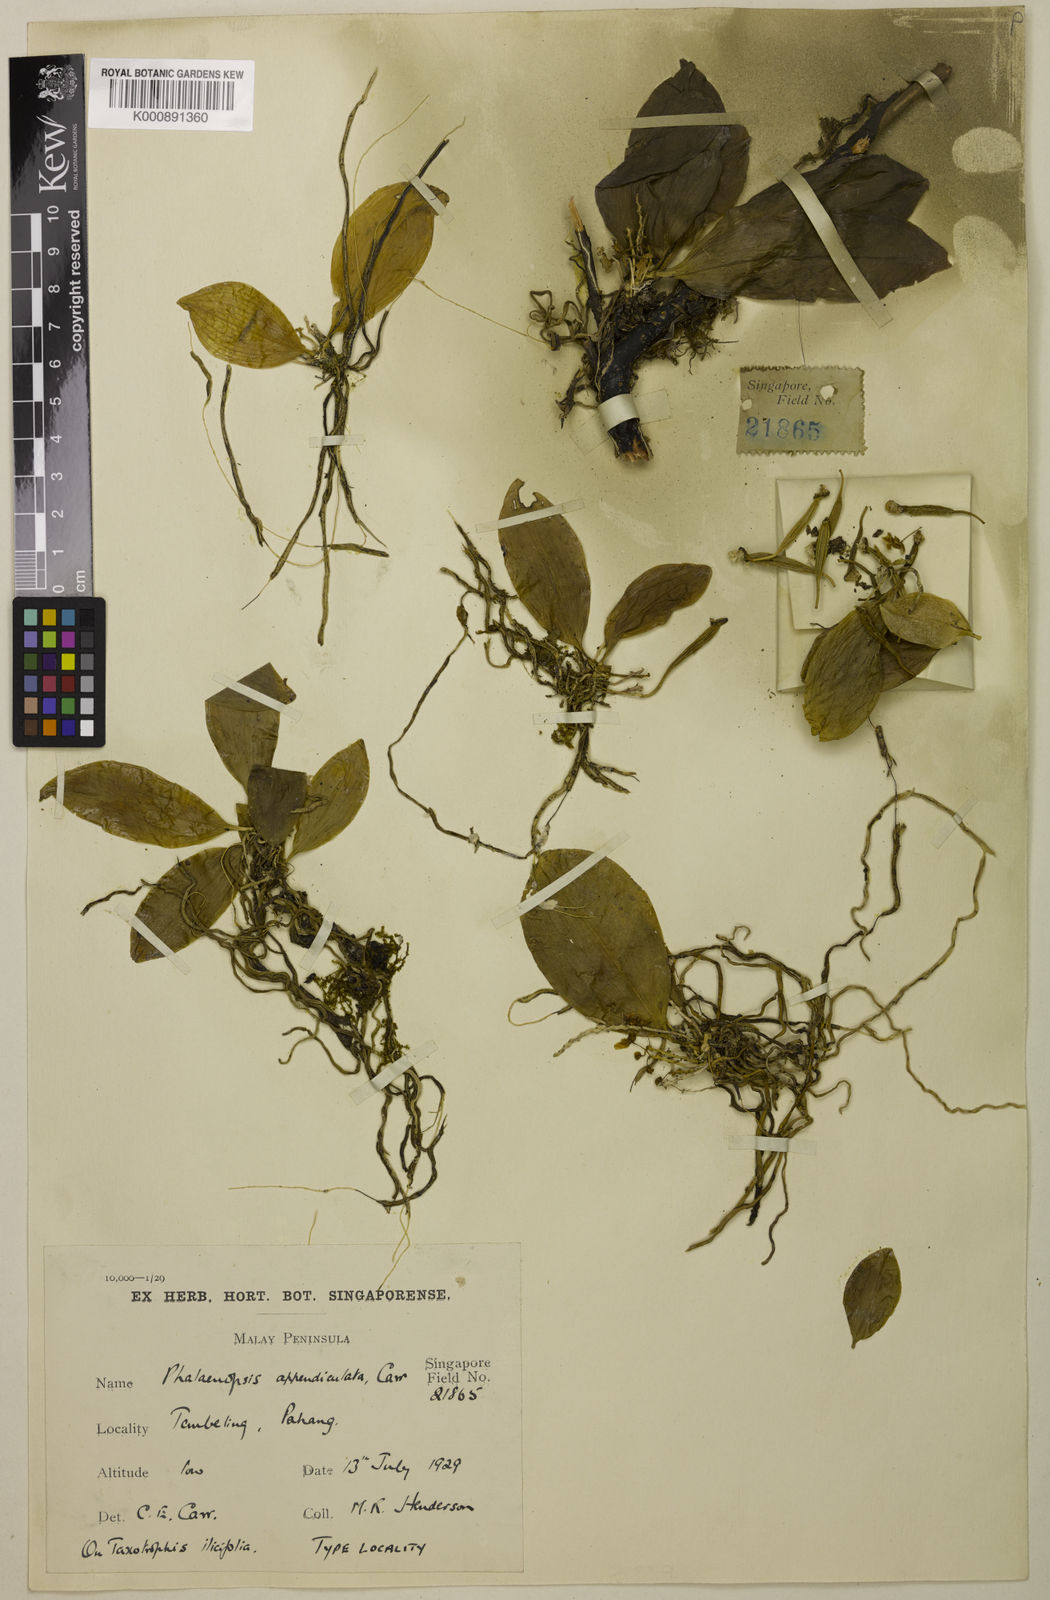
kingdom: Plantae
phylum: Tracheophyta
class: Liliopsida
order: Asparagales
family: Orchidaceae
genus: Phalaenopsis
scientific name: Phalaenopsis appendiculata
